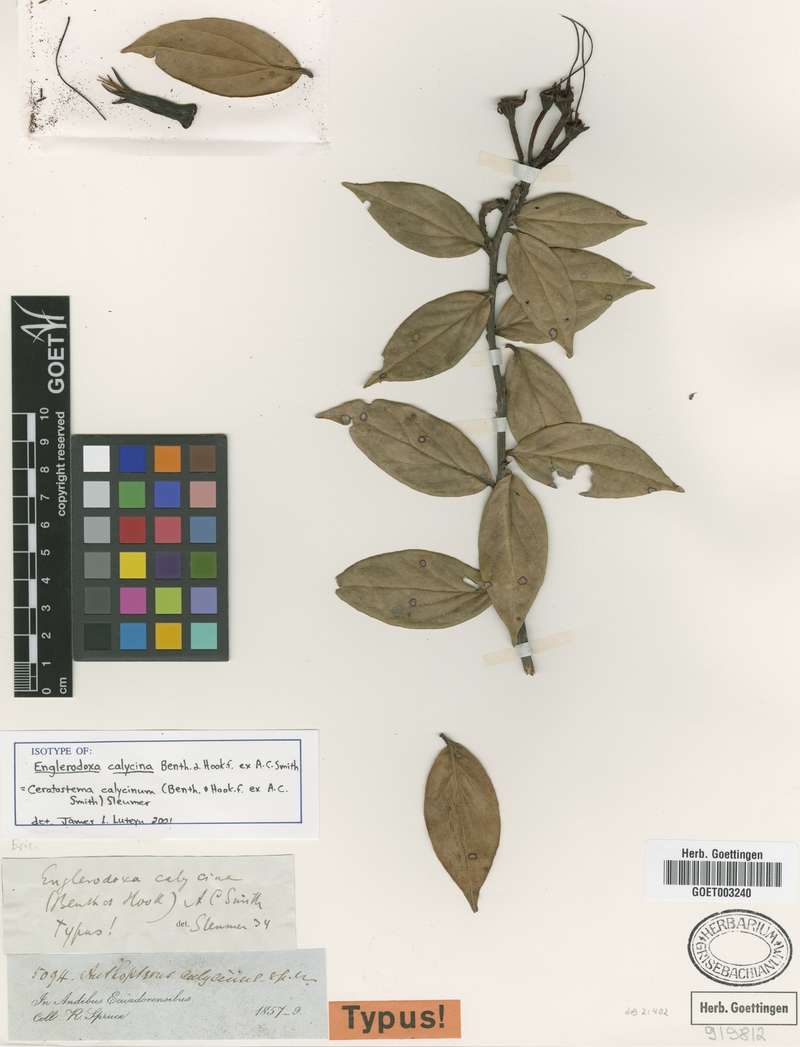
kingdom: Plantae
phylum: Tracheophyta
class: Magnoliopsida
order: Ericales
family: Ericaceae
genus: Ceratostema
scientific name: Ceratostema calycinum
